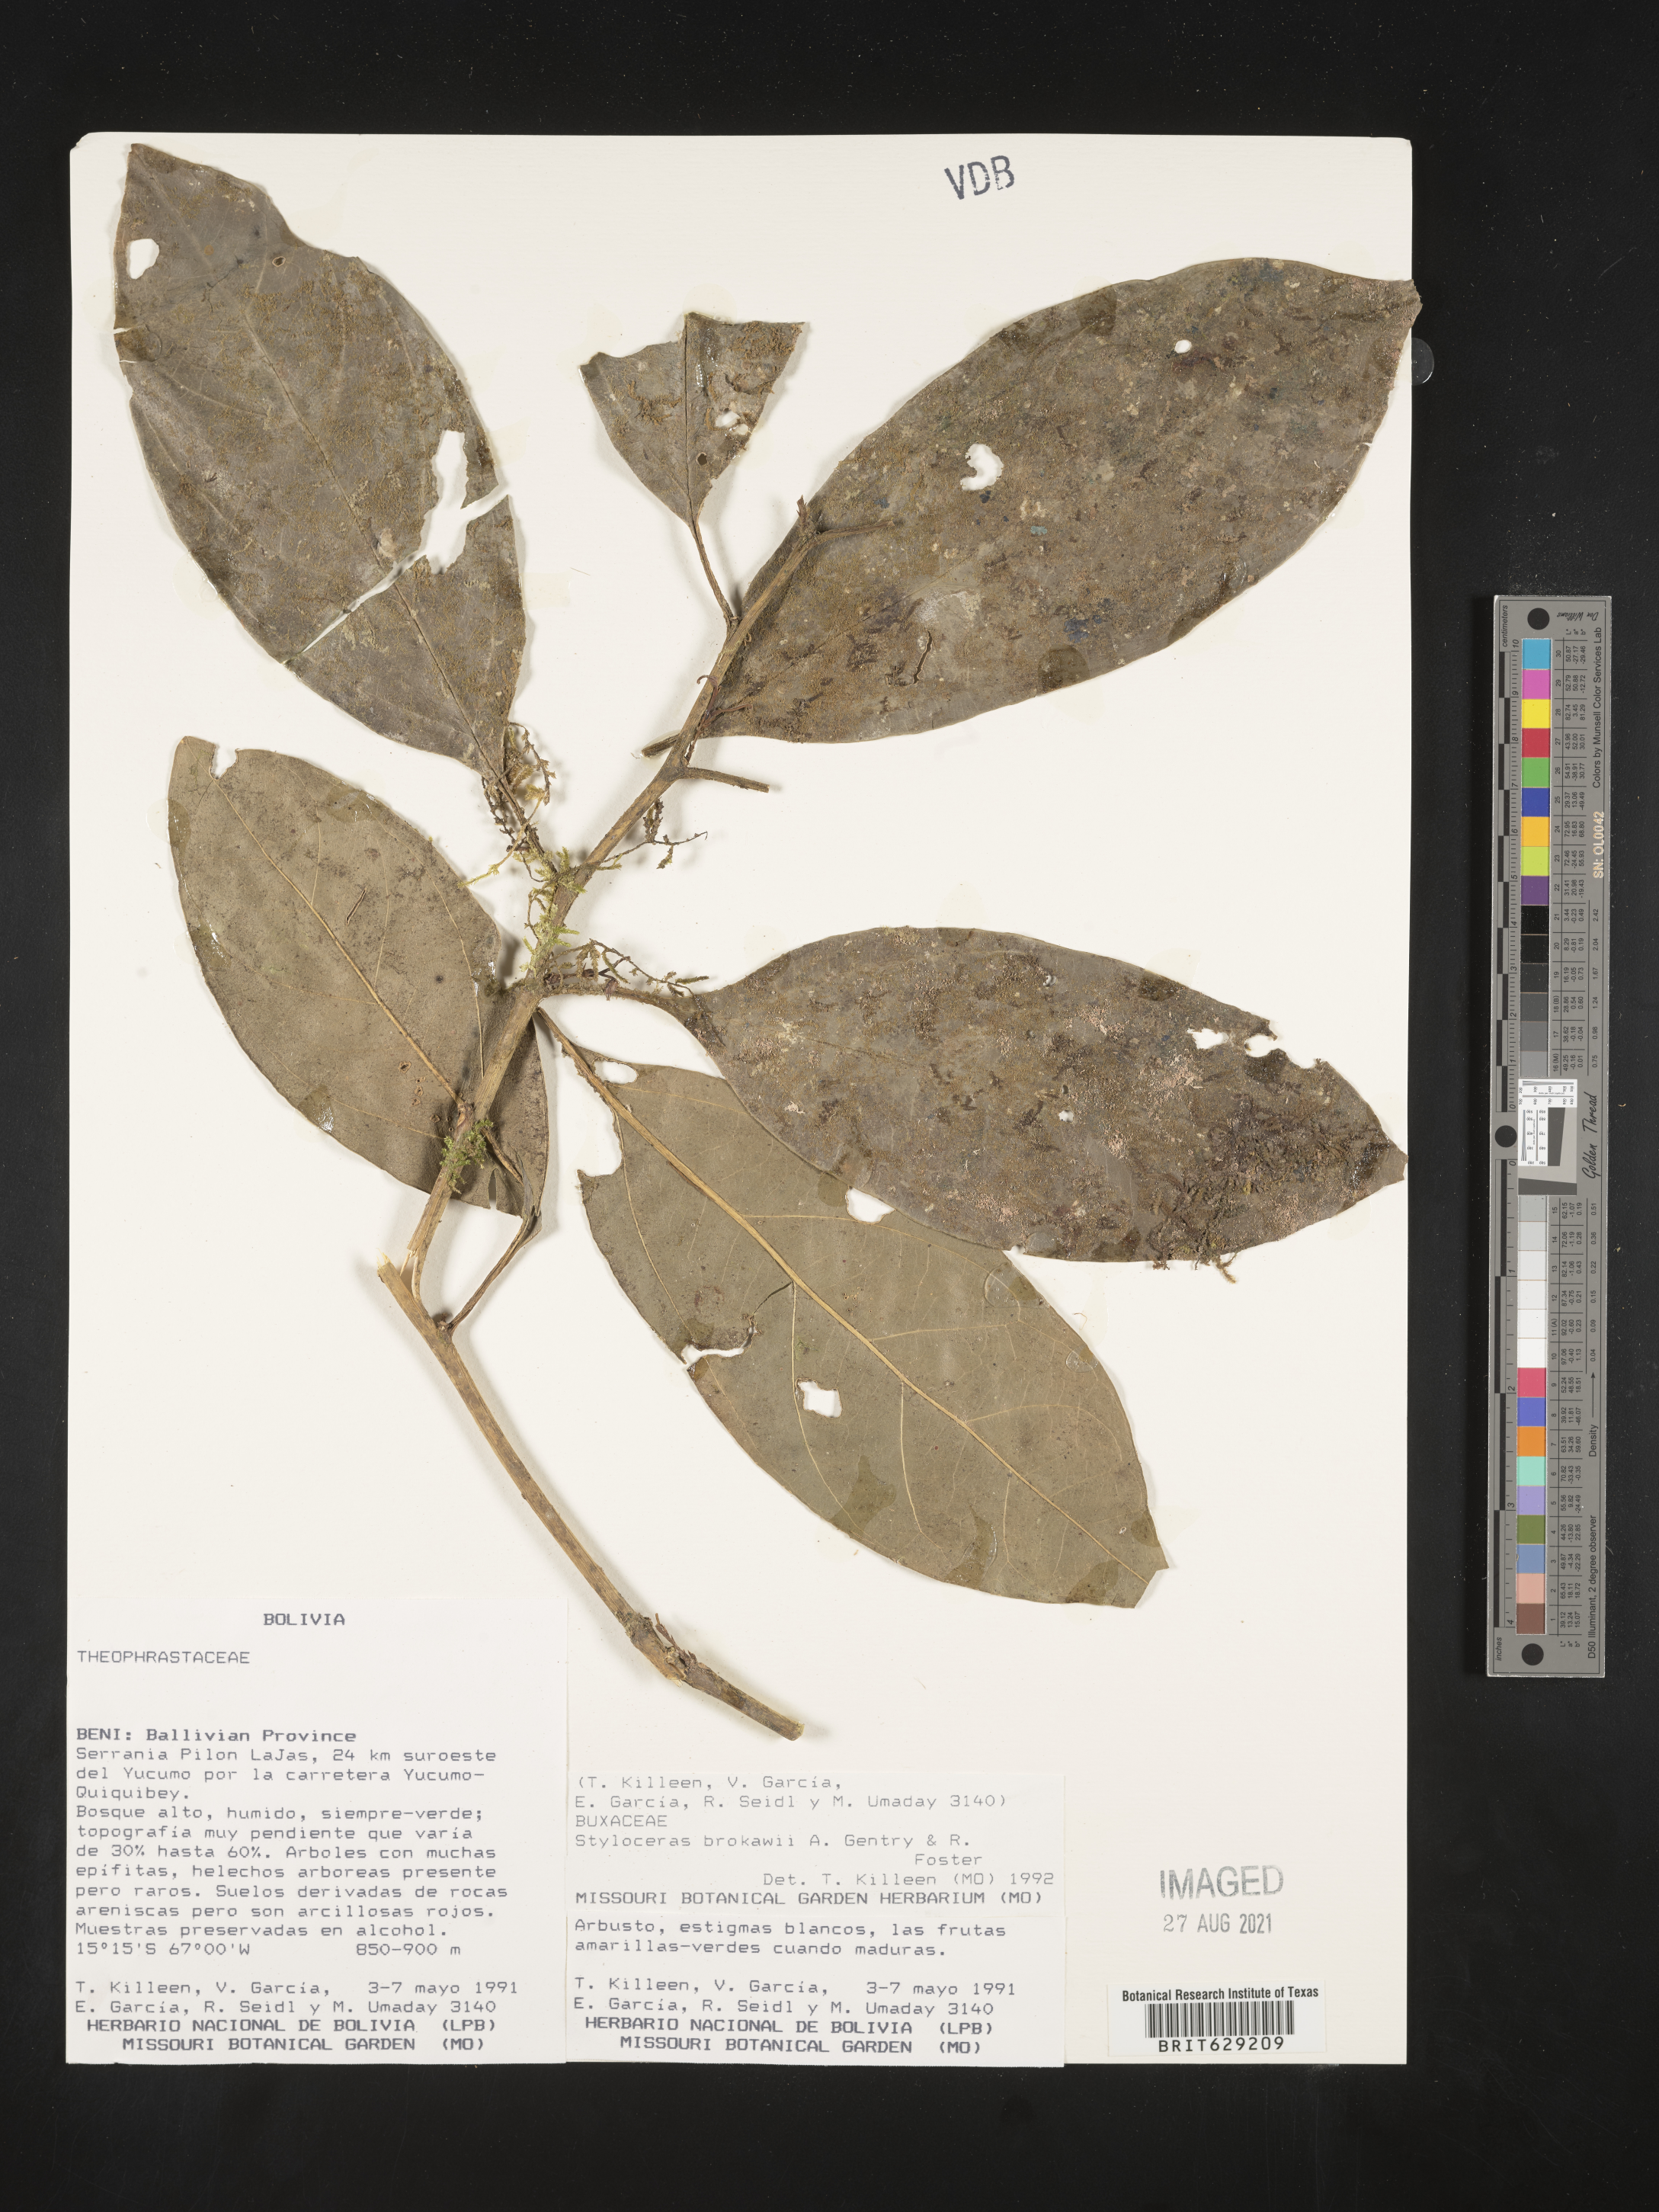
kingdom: Plantae
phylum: Tracheophyta
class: Magnoliopsida
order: Buxales
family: Buxaceae
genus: Styloceras
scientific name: Styloceras brokawii
